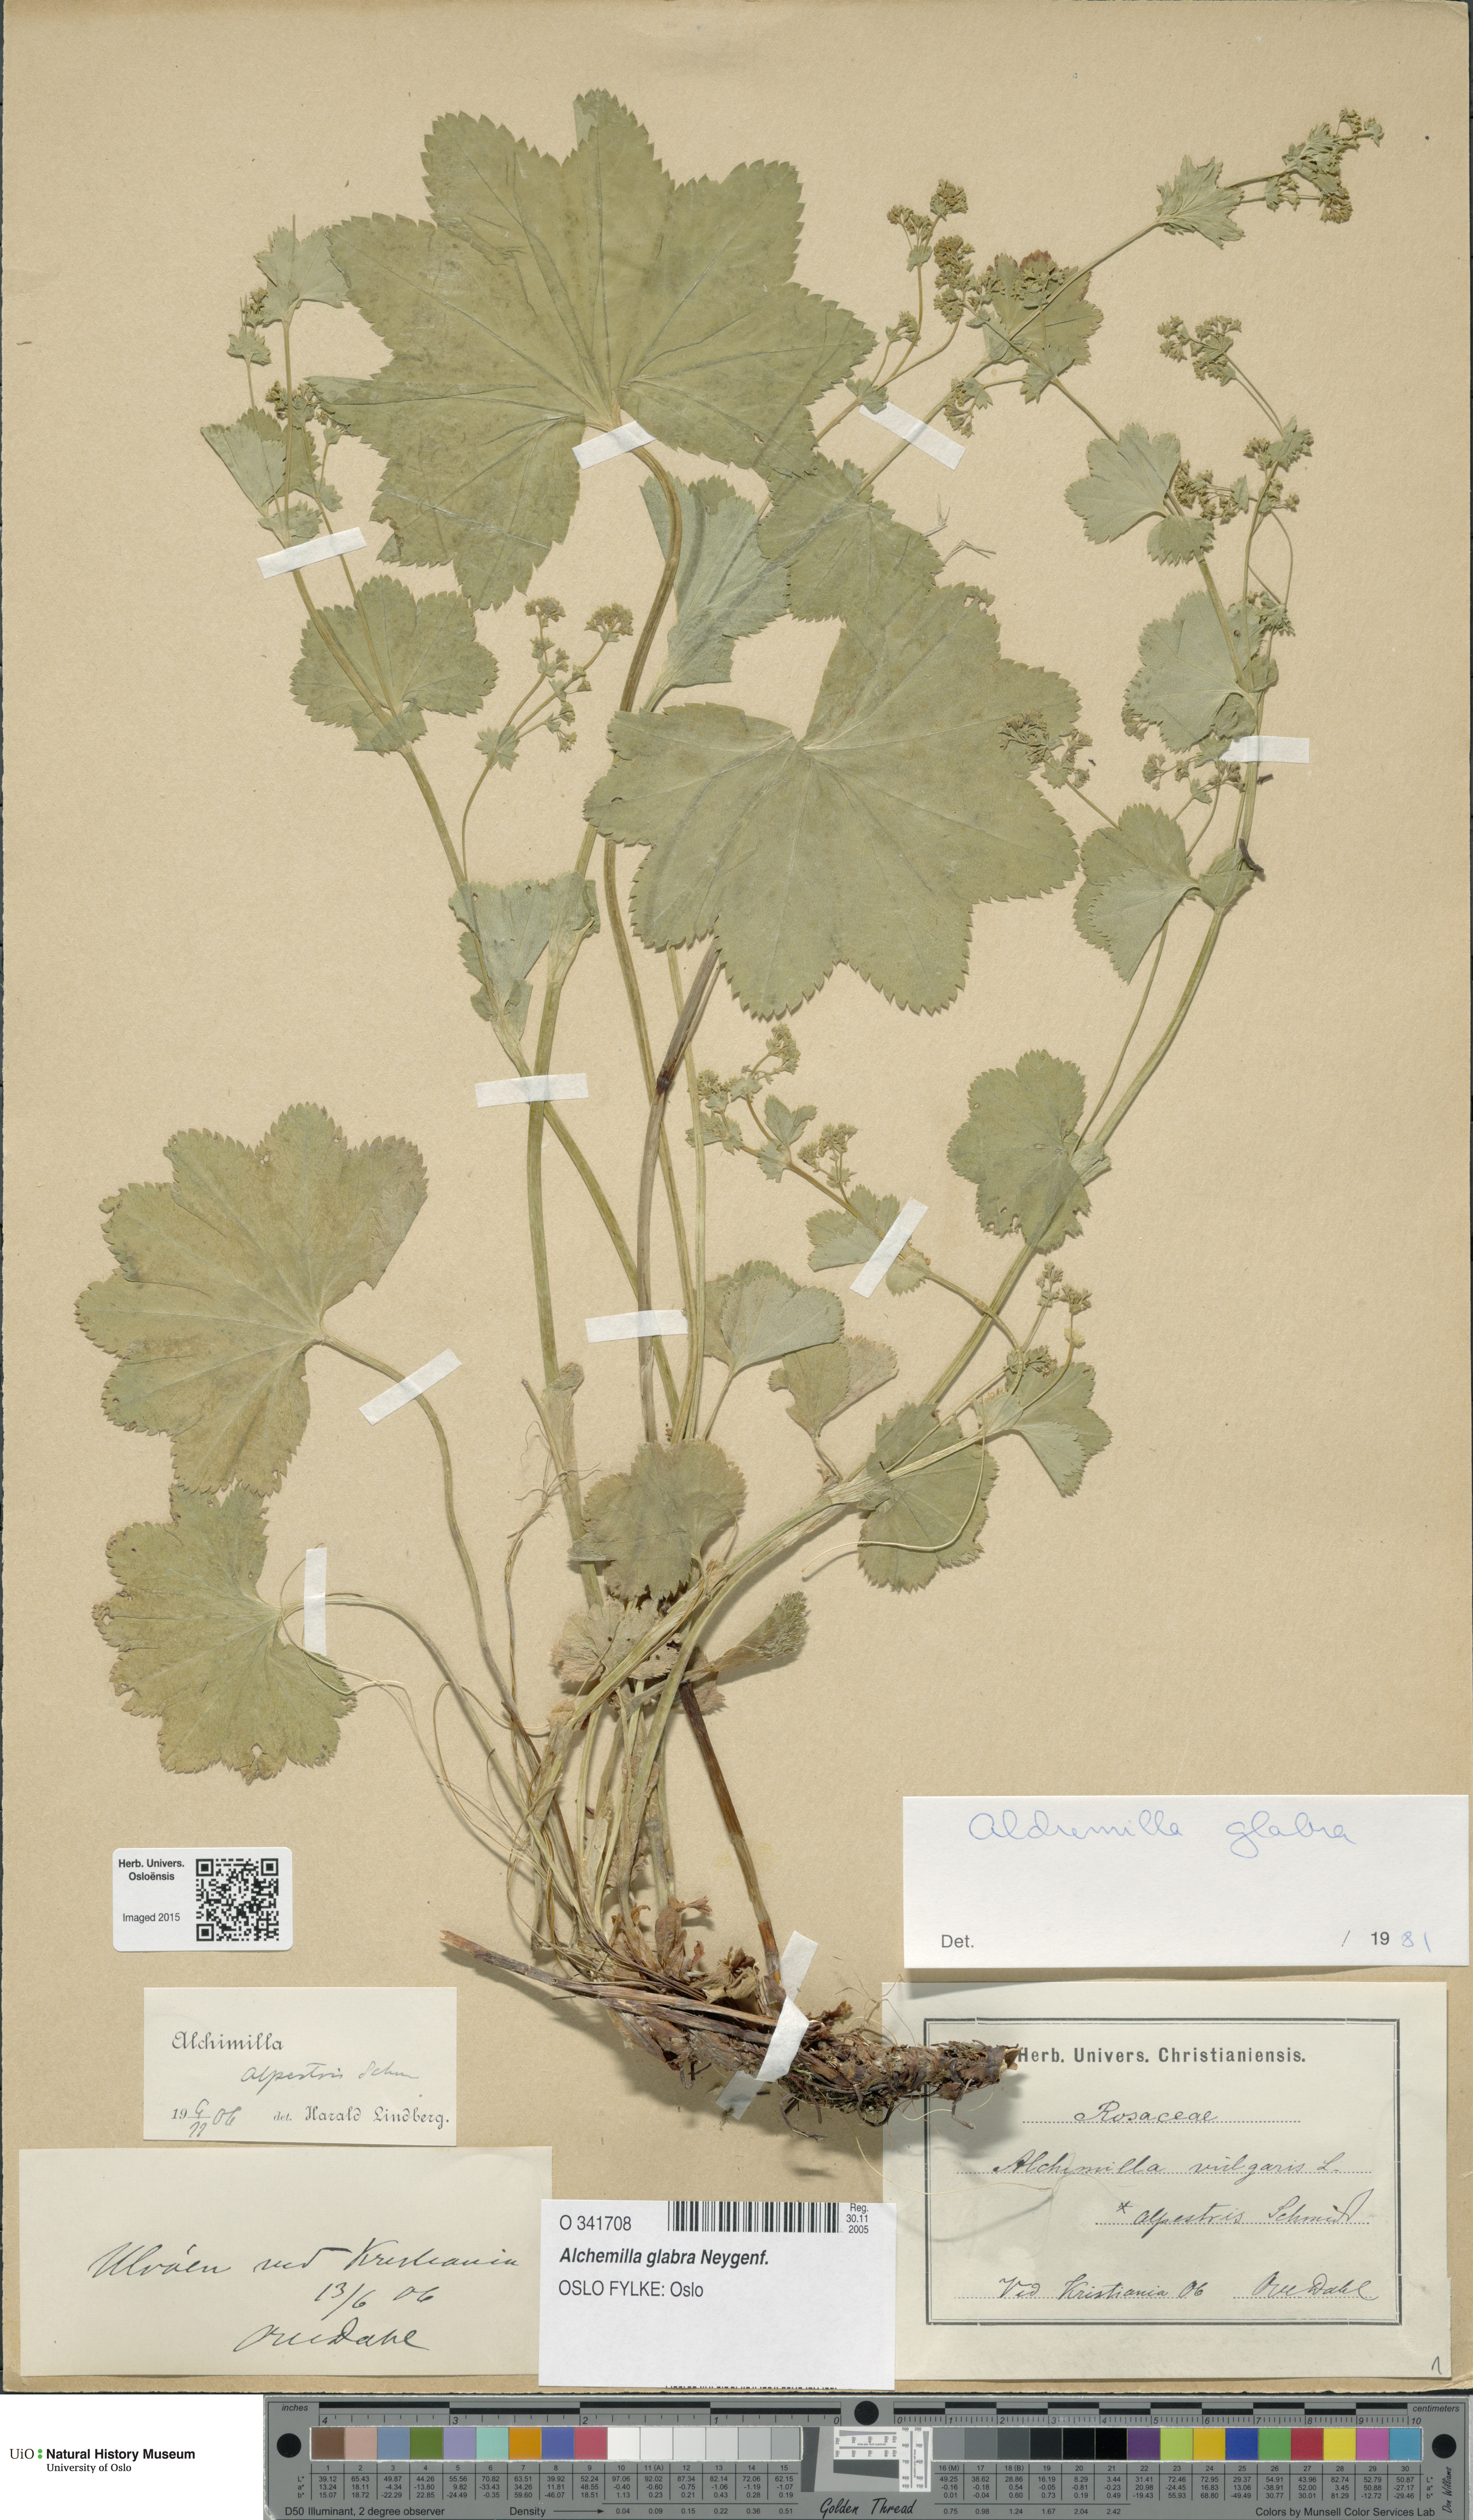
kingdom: Plantae
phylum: Tracheophyta
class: Magnoliopsida
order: Rosales
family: Rosaceae
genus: Alchemilla
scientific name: Alchemilla glabra
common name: Smooth lady's-mantle
